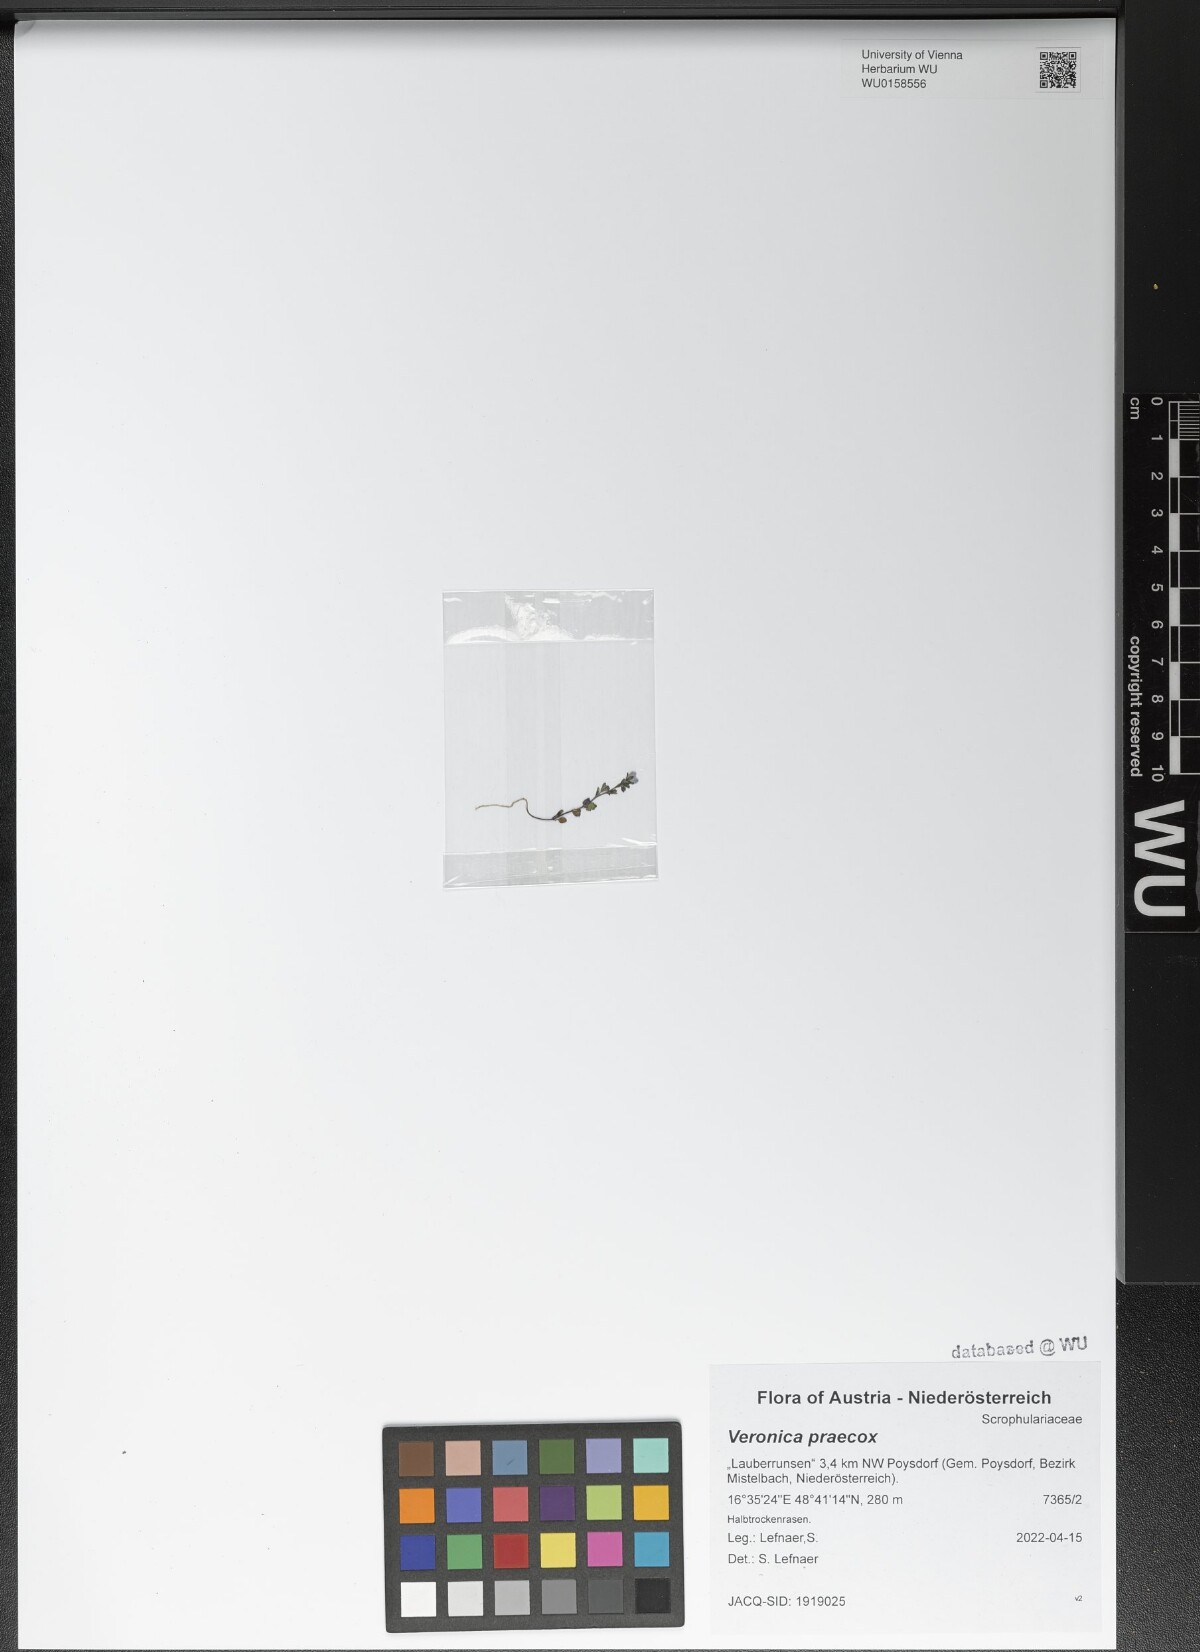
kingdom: Plantae
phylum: Tracheophyta
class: Magnoliopsida
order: Lamiales
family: Plantaginaceae
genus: Veronica
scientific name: Veronica praecox
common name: Breckland speedwell
